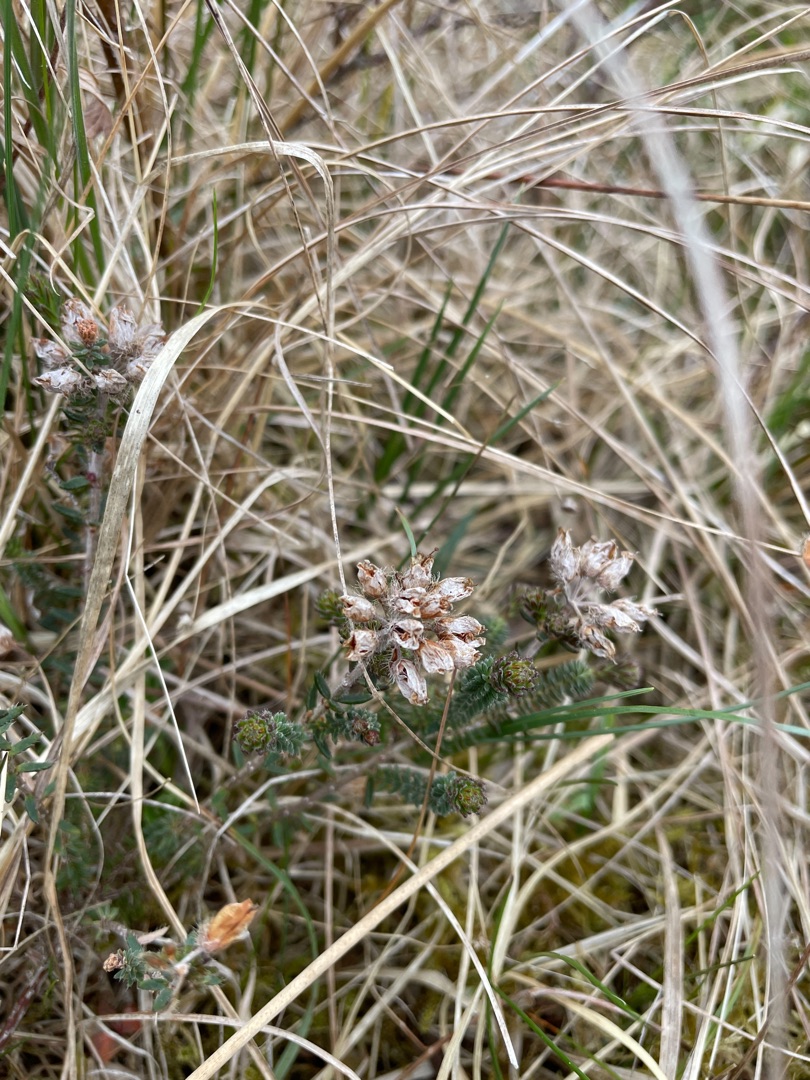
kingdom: Plantae
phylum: Tracheophyta
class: Magnoliopsida
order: Ericales
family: Ericaceae
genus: Erica
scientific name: Erica tetralix
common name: Klokkelyng
